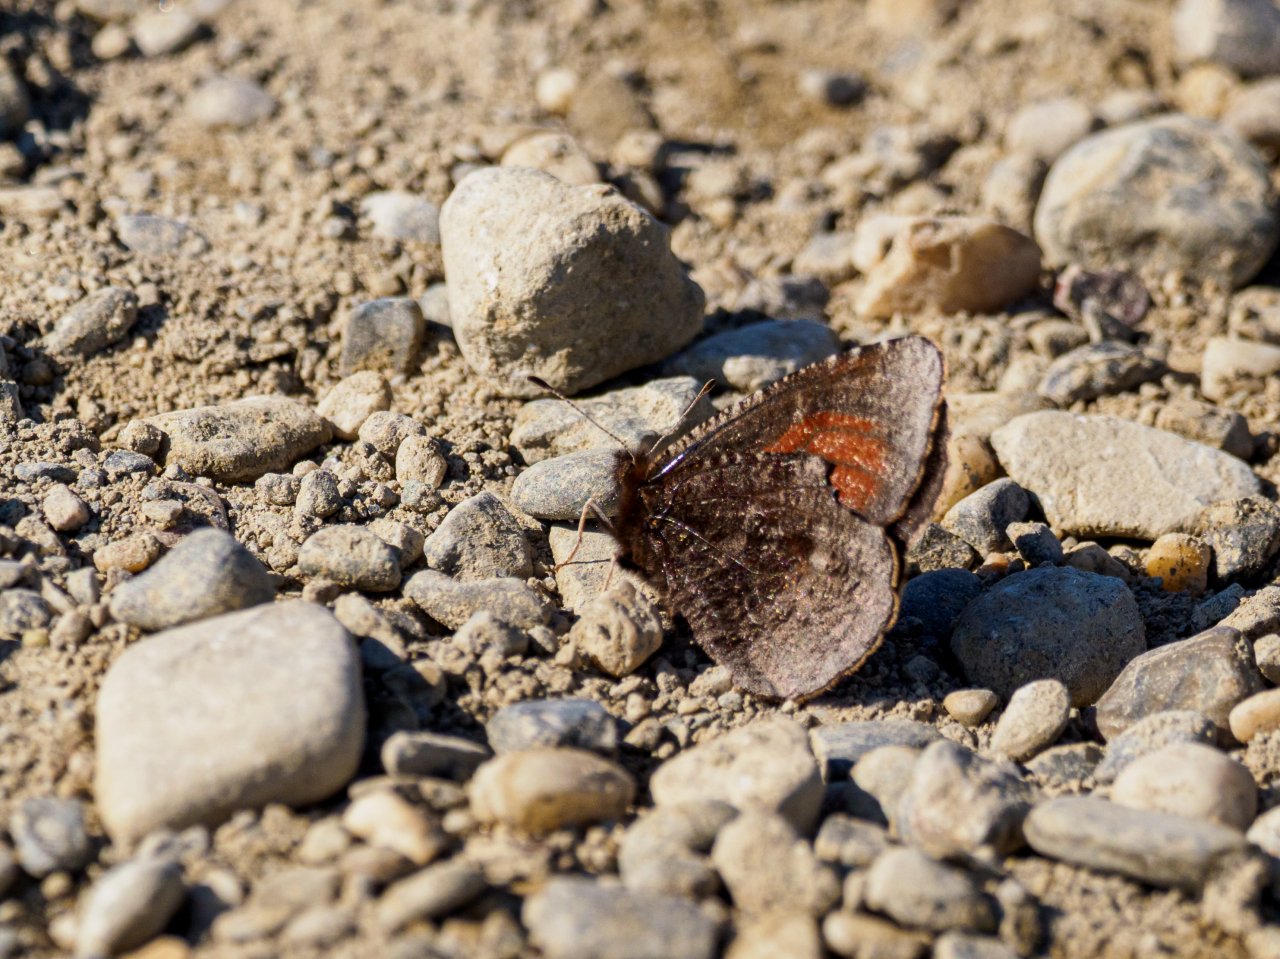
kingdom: Animalia
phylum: Arthropoda
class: Insecta
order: Lepidoptera
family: Nymphalidae
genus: Erebia
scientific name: Erebia discoidalis
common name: Red-disked Alpine
